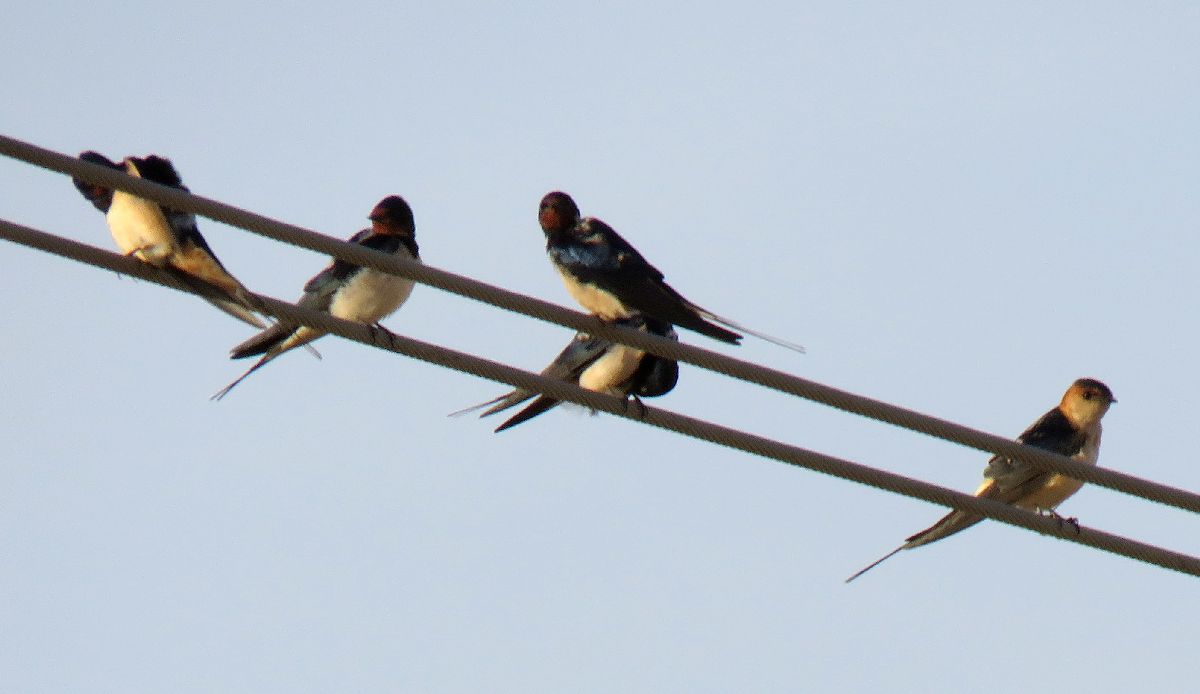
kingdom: Animalia
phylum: Chordata
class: Aves
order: Passeriformes
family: Hirundinidae
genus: Hirundo
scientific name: Hirundo rustica
